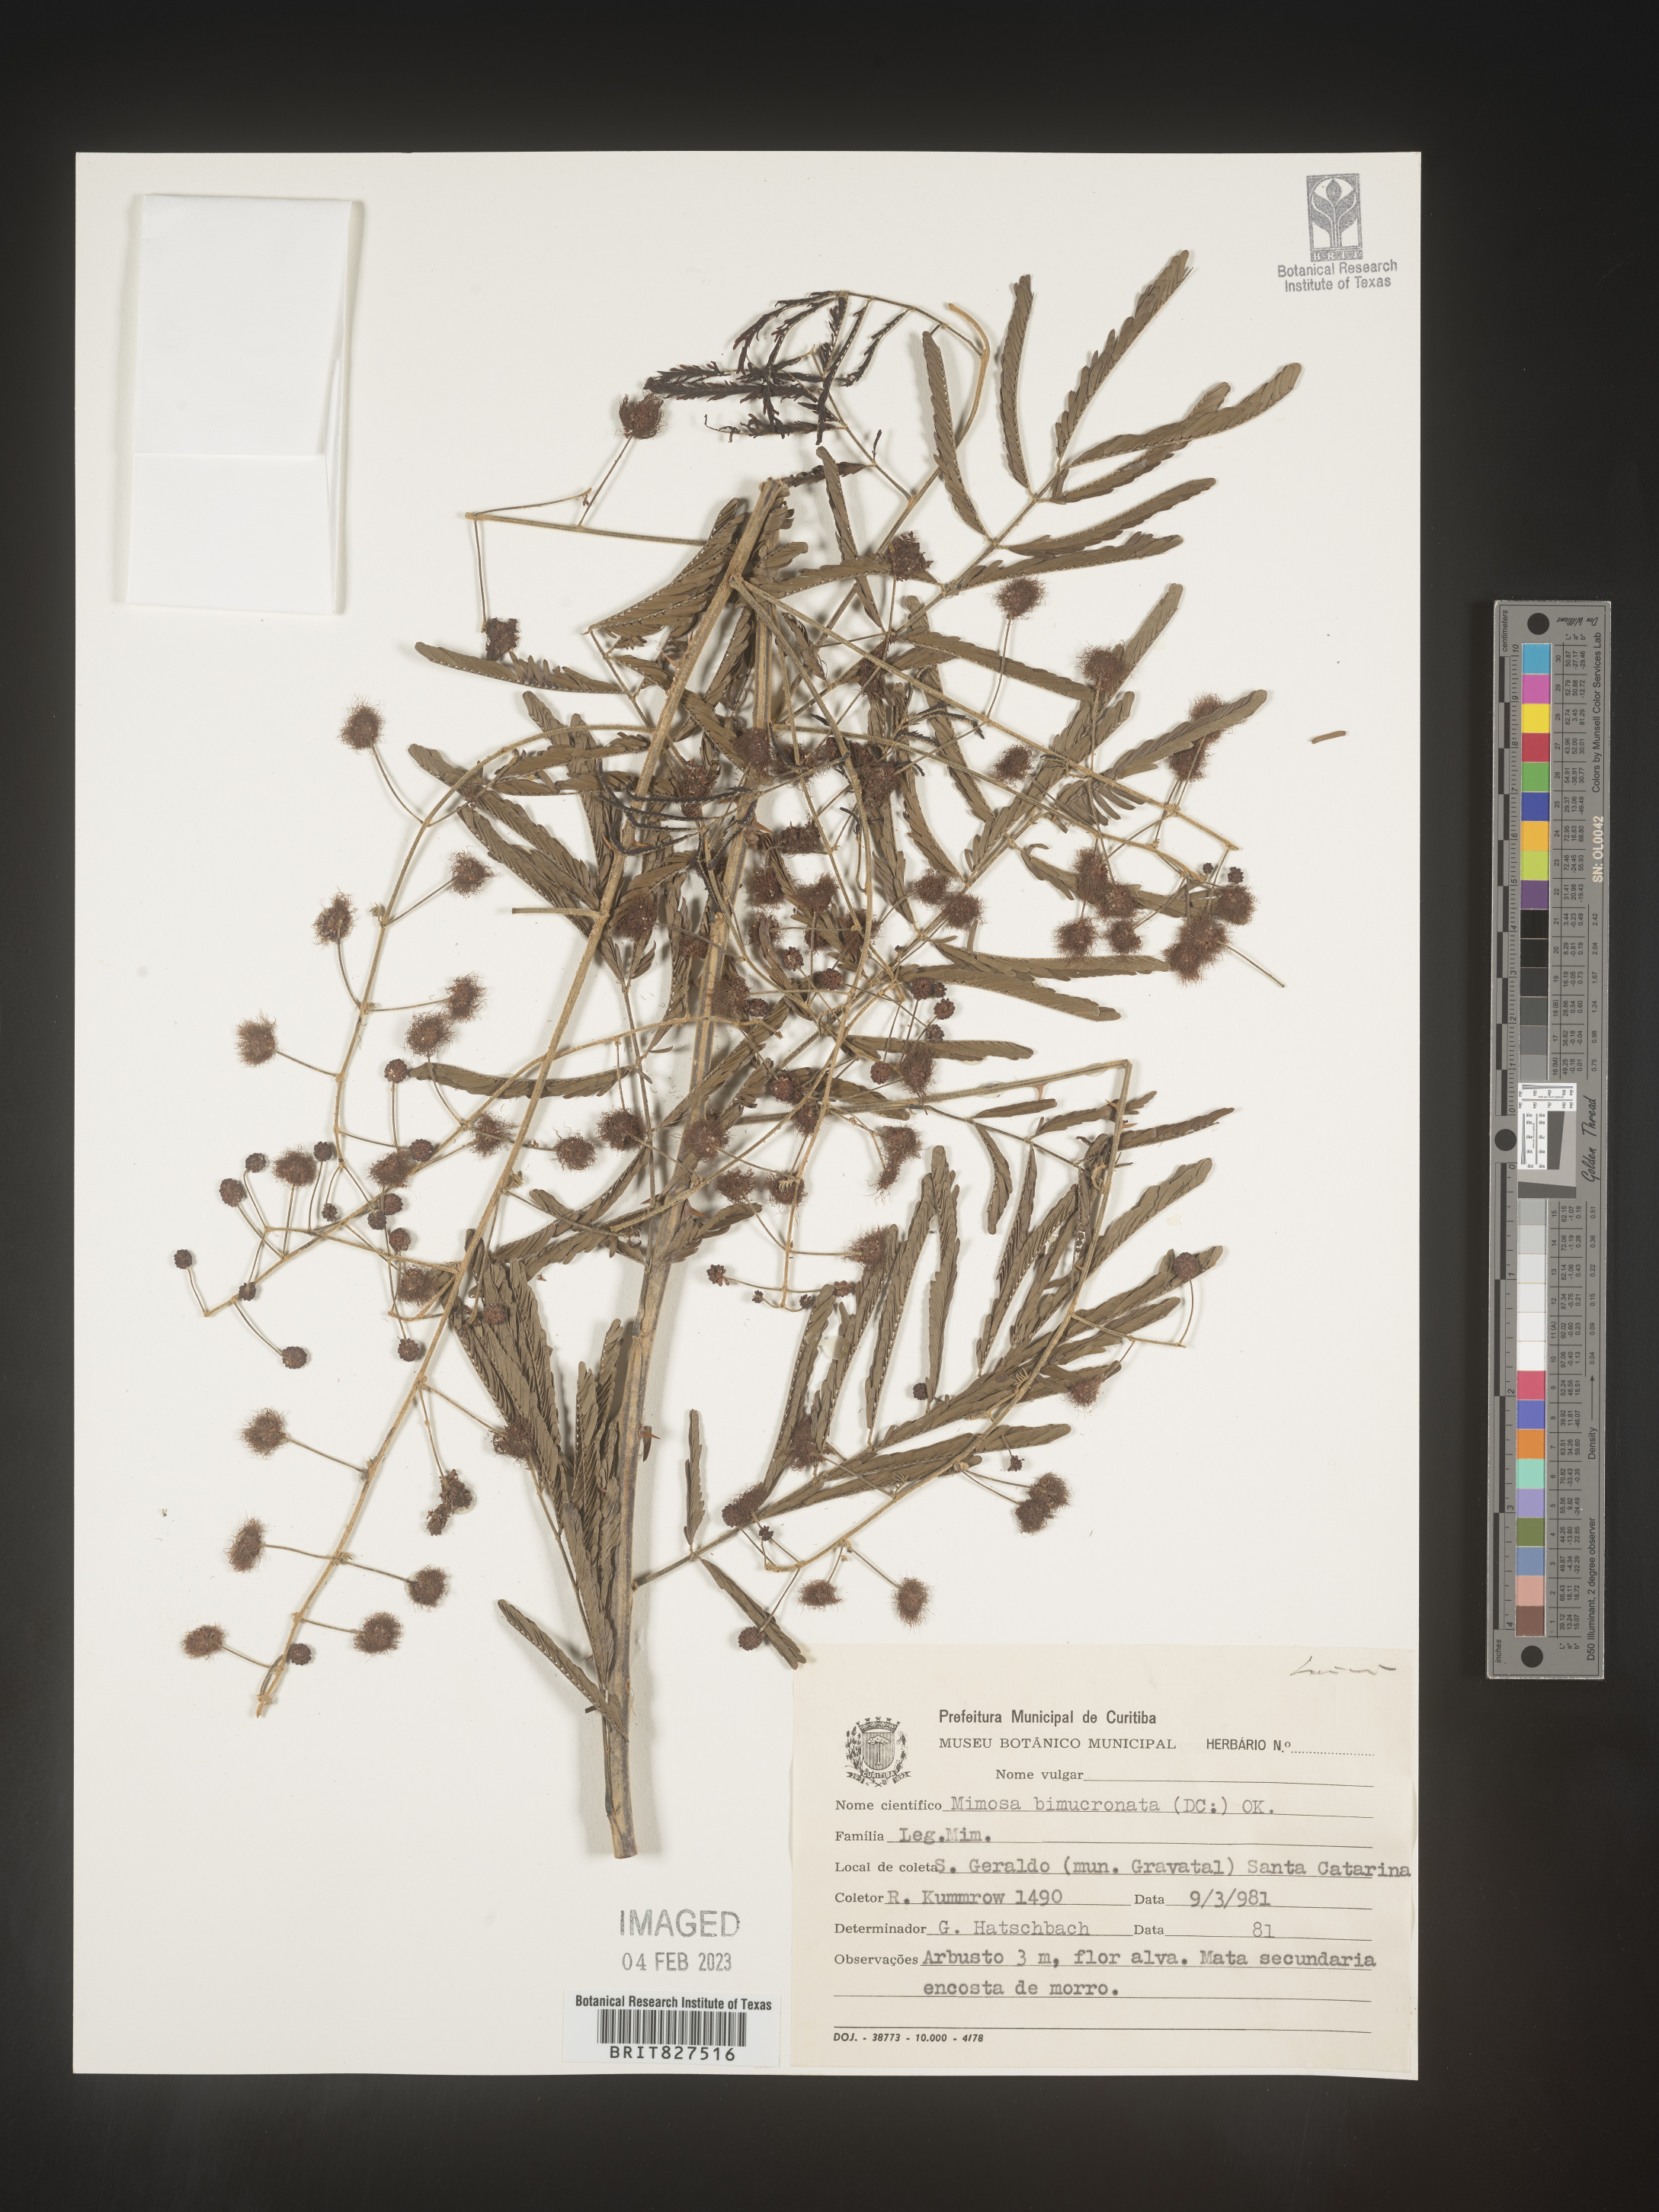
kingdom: Plantae
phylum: Tracheophyta
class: Magnoliopsida
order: Fabales
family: Fabaceae
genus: Mimosa
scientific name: Mimosa
